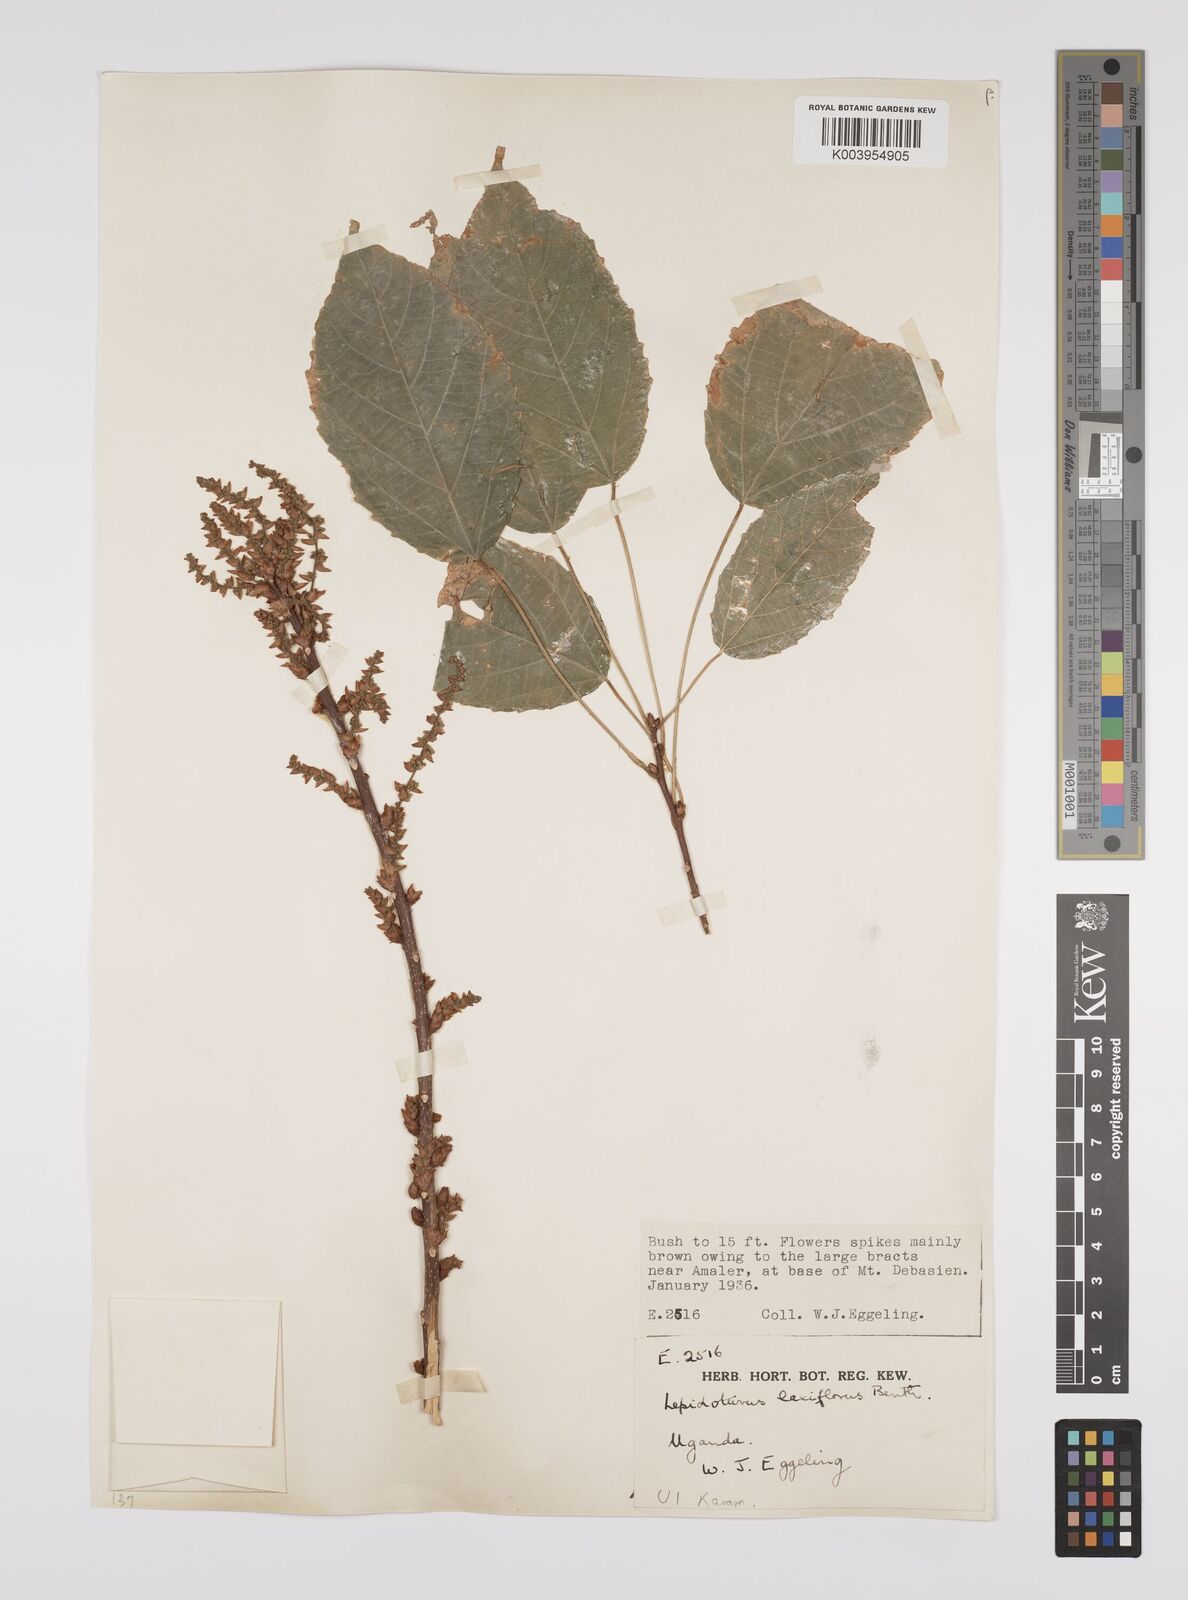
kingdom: Plantae
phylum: Tracheophyta
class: Magnoliopsida
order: Malpighiales
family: Euphorbiaceae
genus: Alchornea
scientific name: Alchornea laxiflora
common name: Lowveld bead-string
